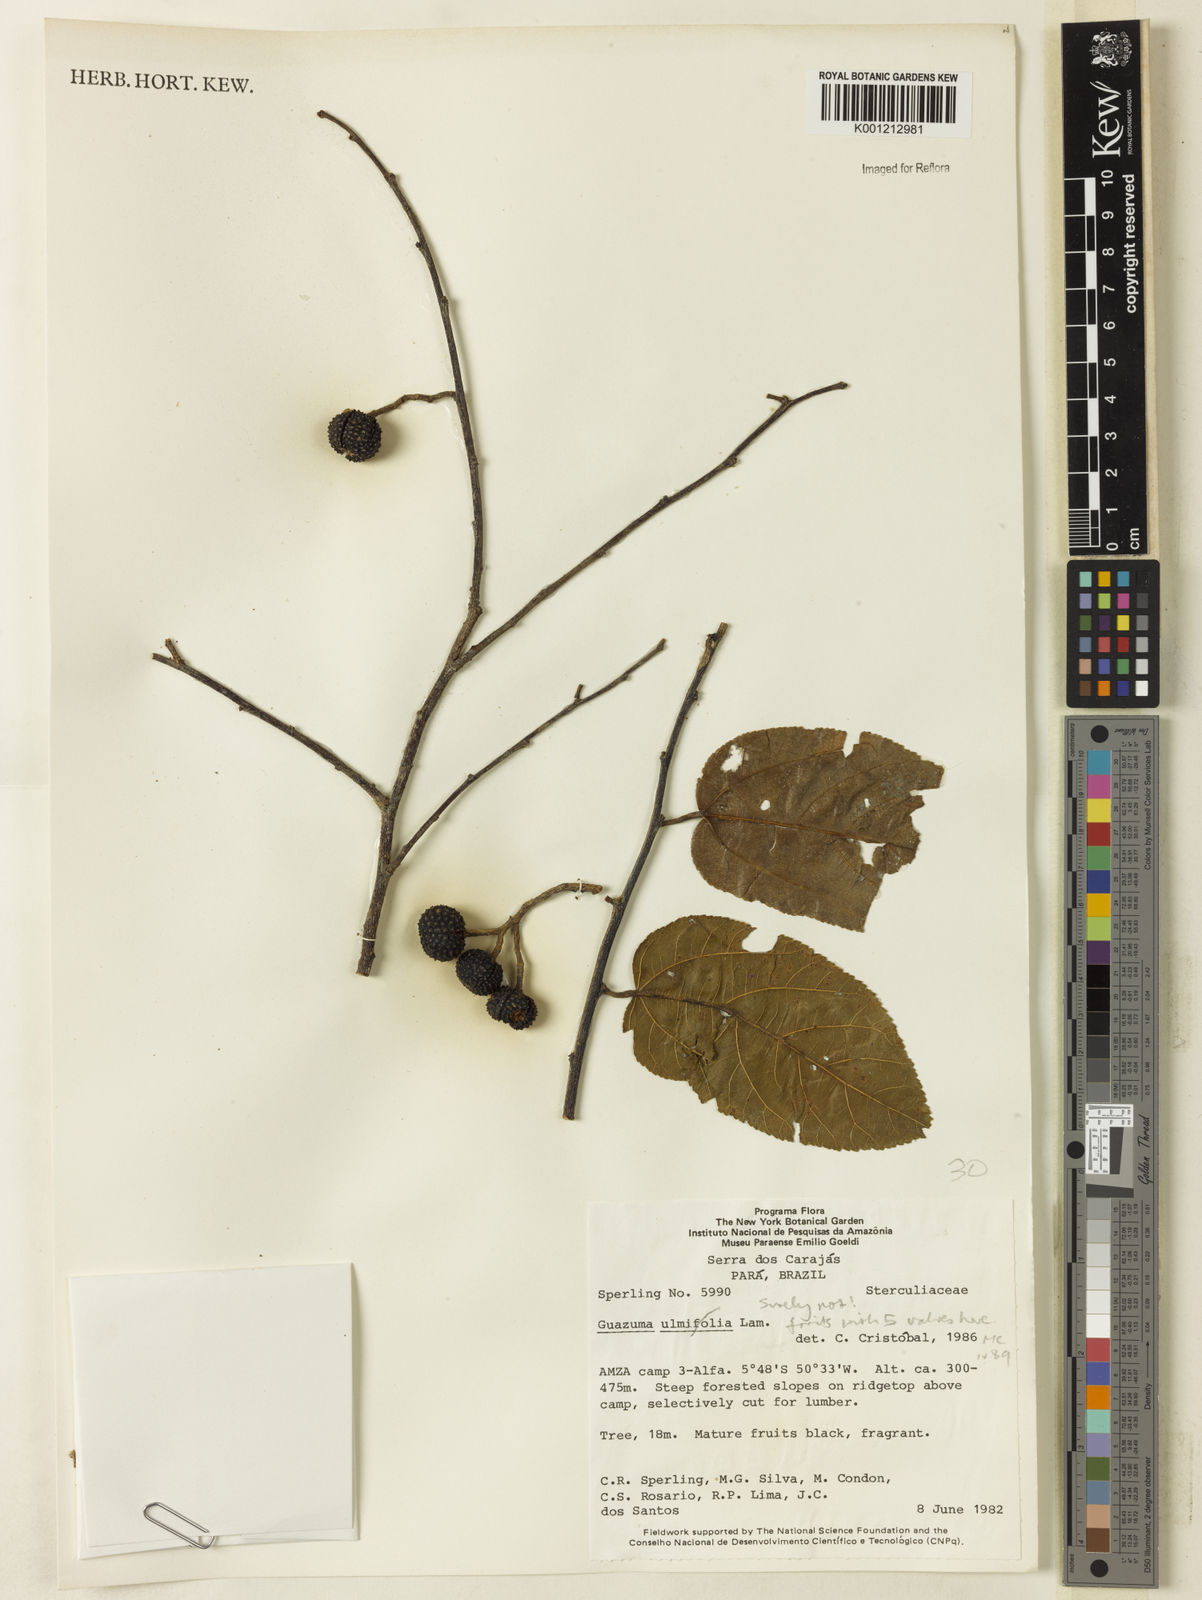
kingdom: Plantae
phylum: Tracheophyta
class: Magnoliopsida
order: Malvales
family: Malvaceae
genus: Guazuma
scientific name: Guazuma
